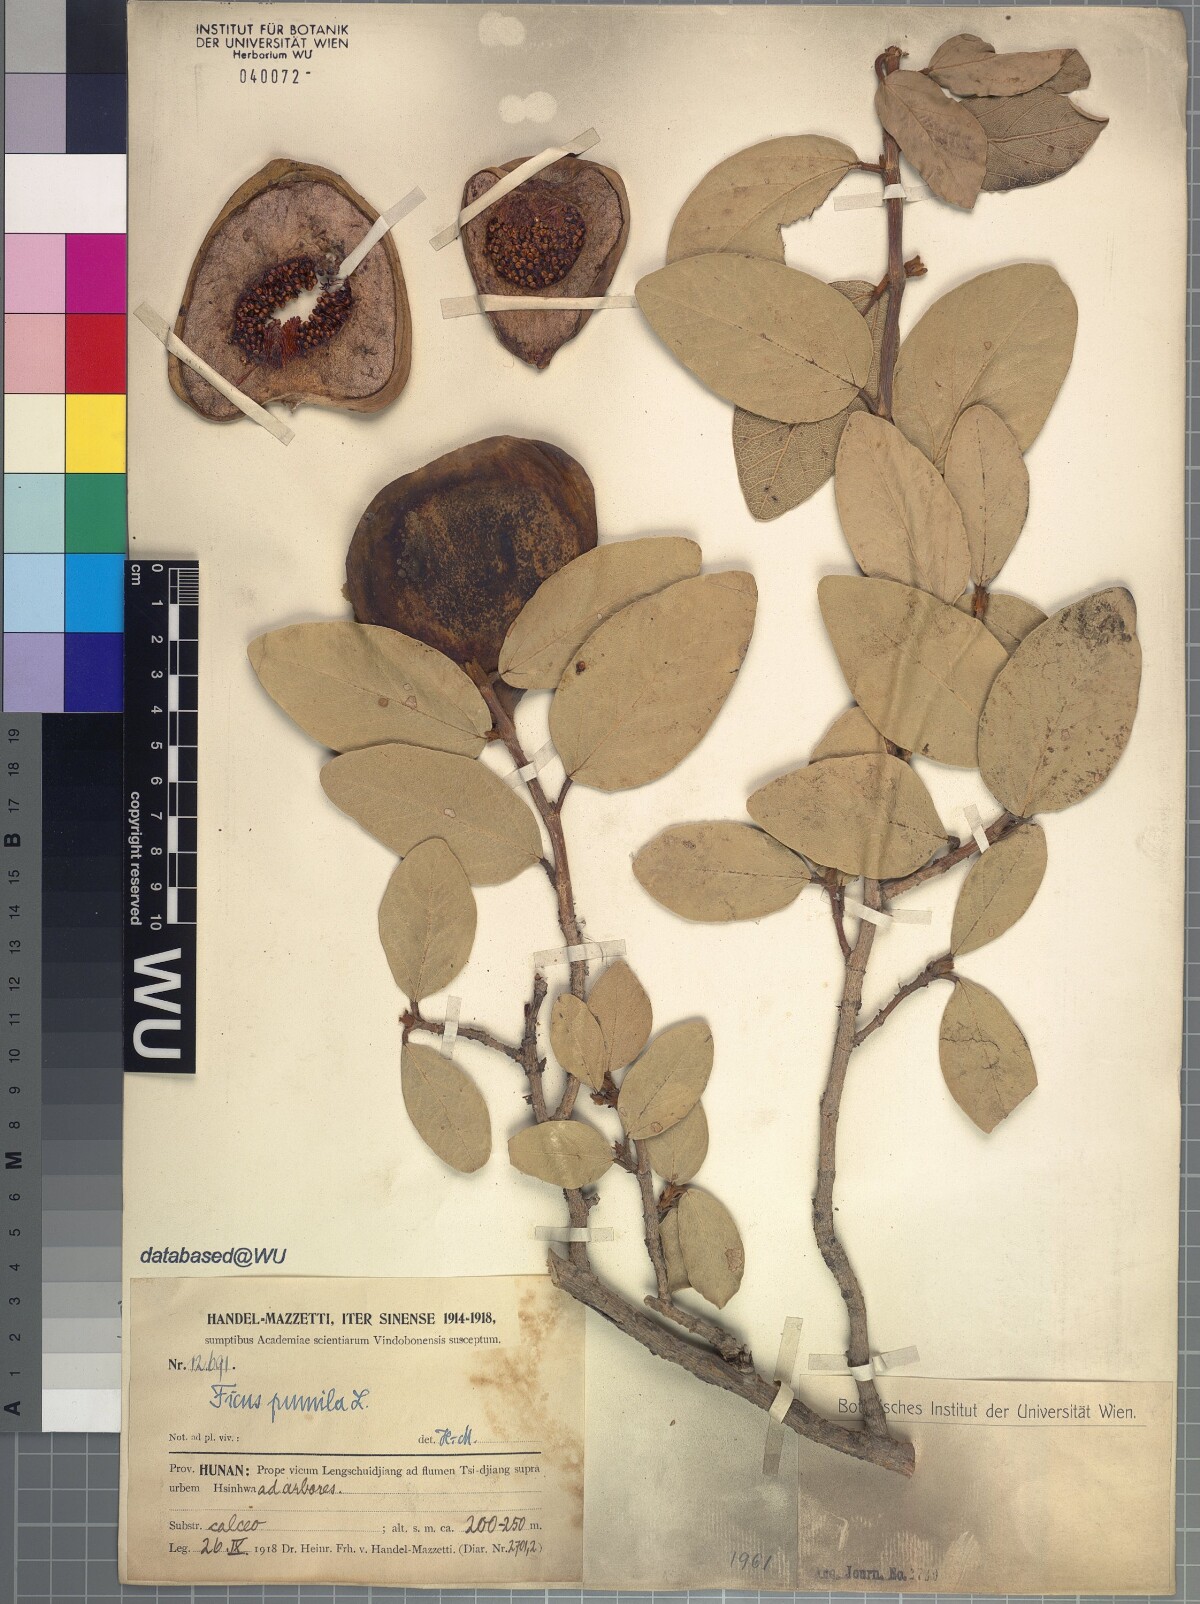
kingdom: Plantae
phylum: Tracheophyta
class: Magnoliopsida
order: Rosales
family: Moraceae
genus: Ficus
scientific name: Ficus pumila
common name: Climbingfig
